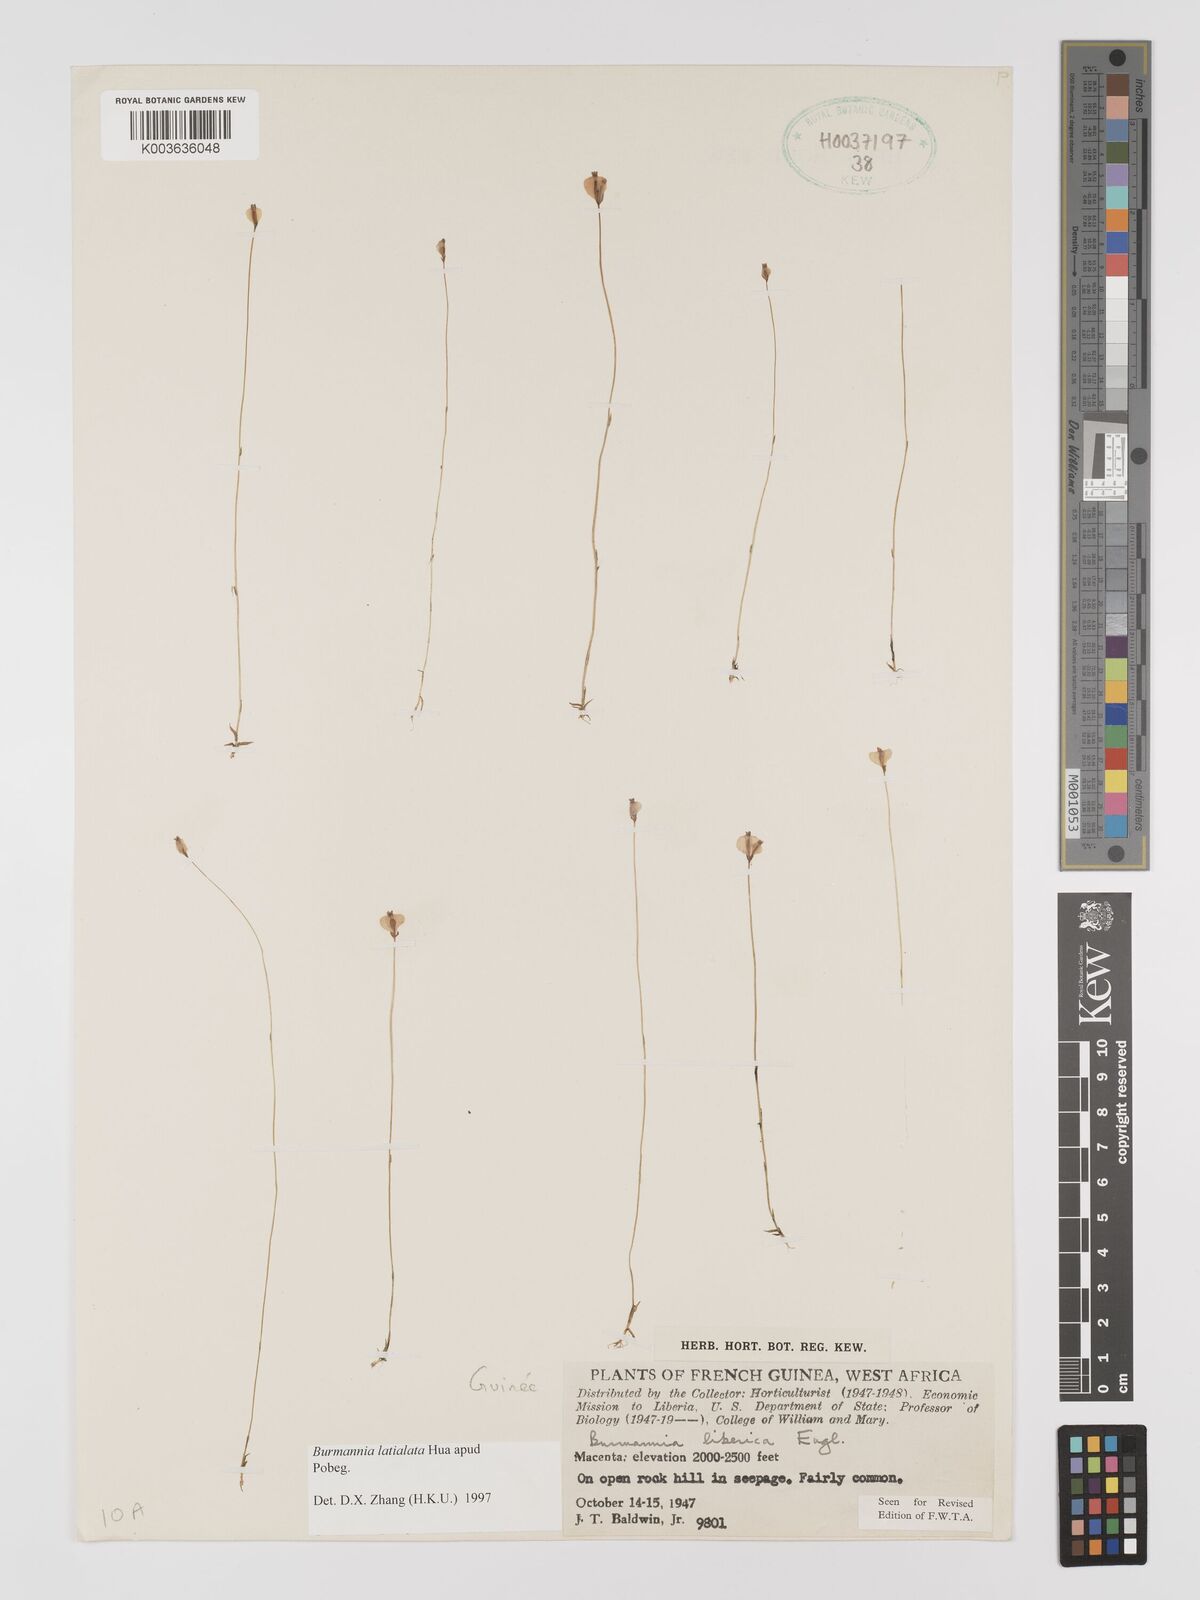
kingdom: Plantae
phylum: Tracheophyta
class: Liliopsida
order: Dioscoreales
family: Burmanniaceae
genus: Burmannia
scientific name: Burmannia madagascariensis
